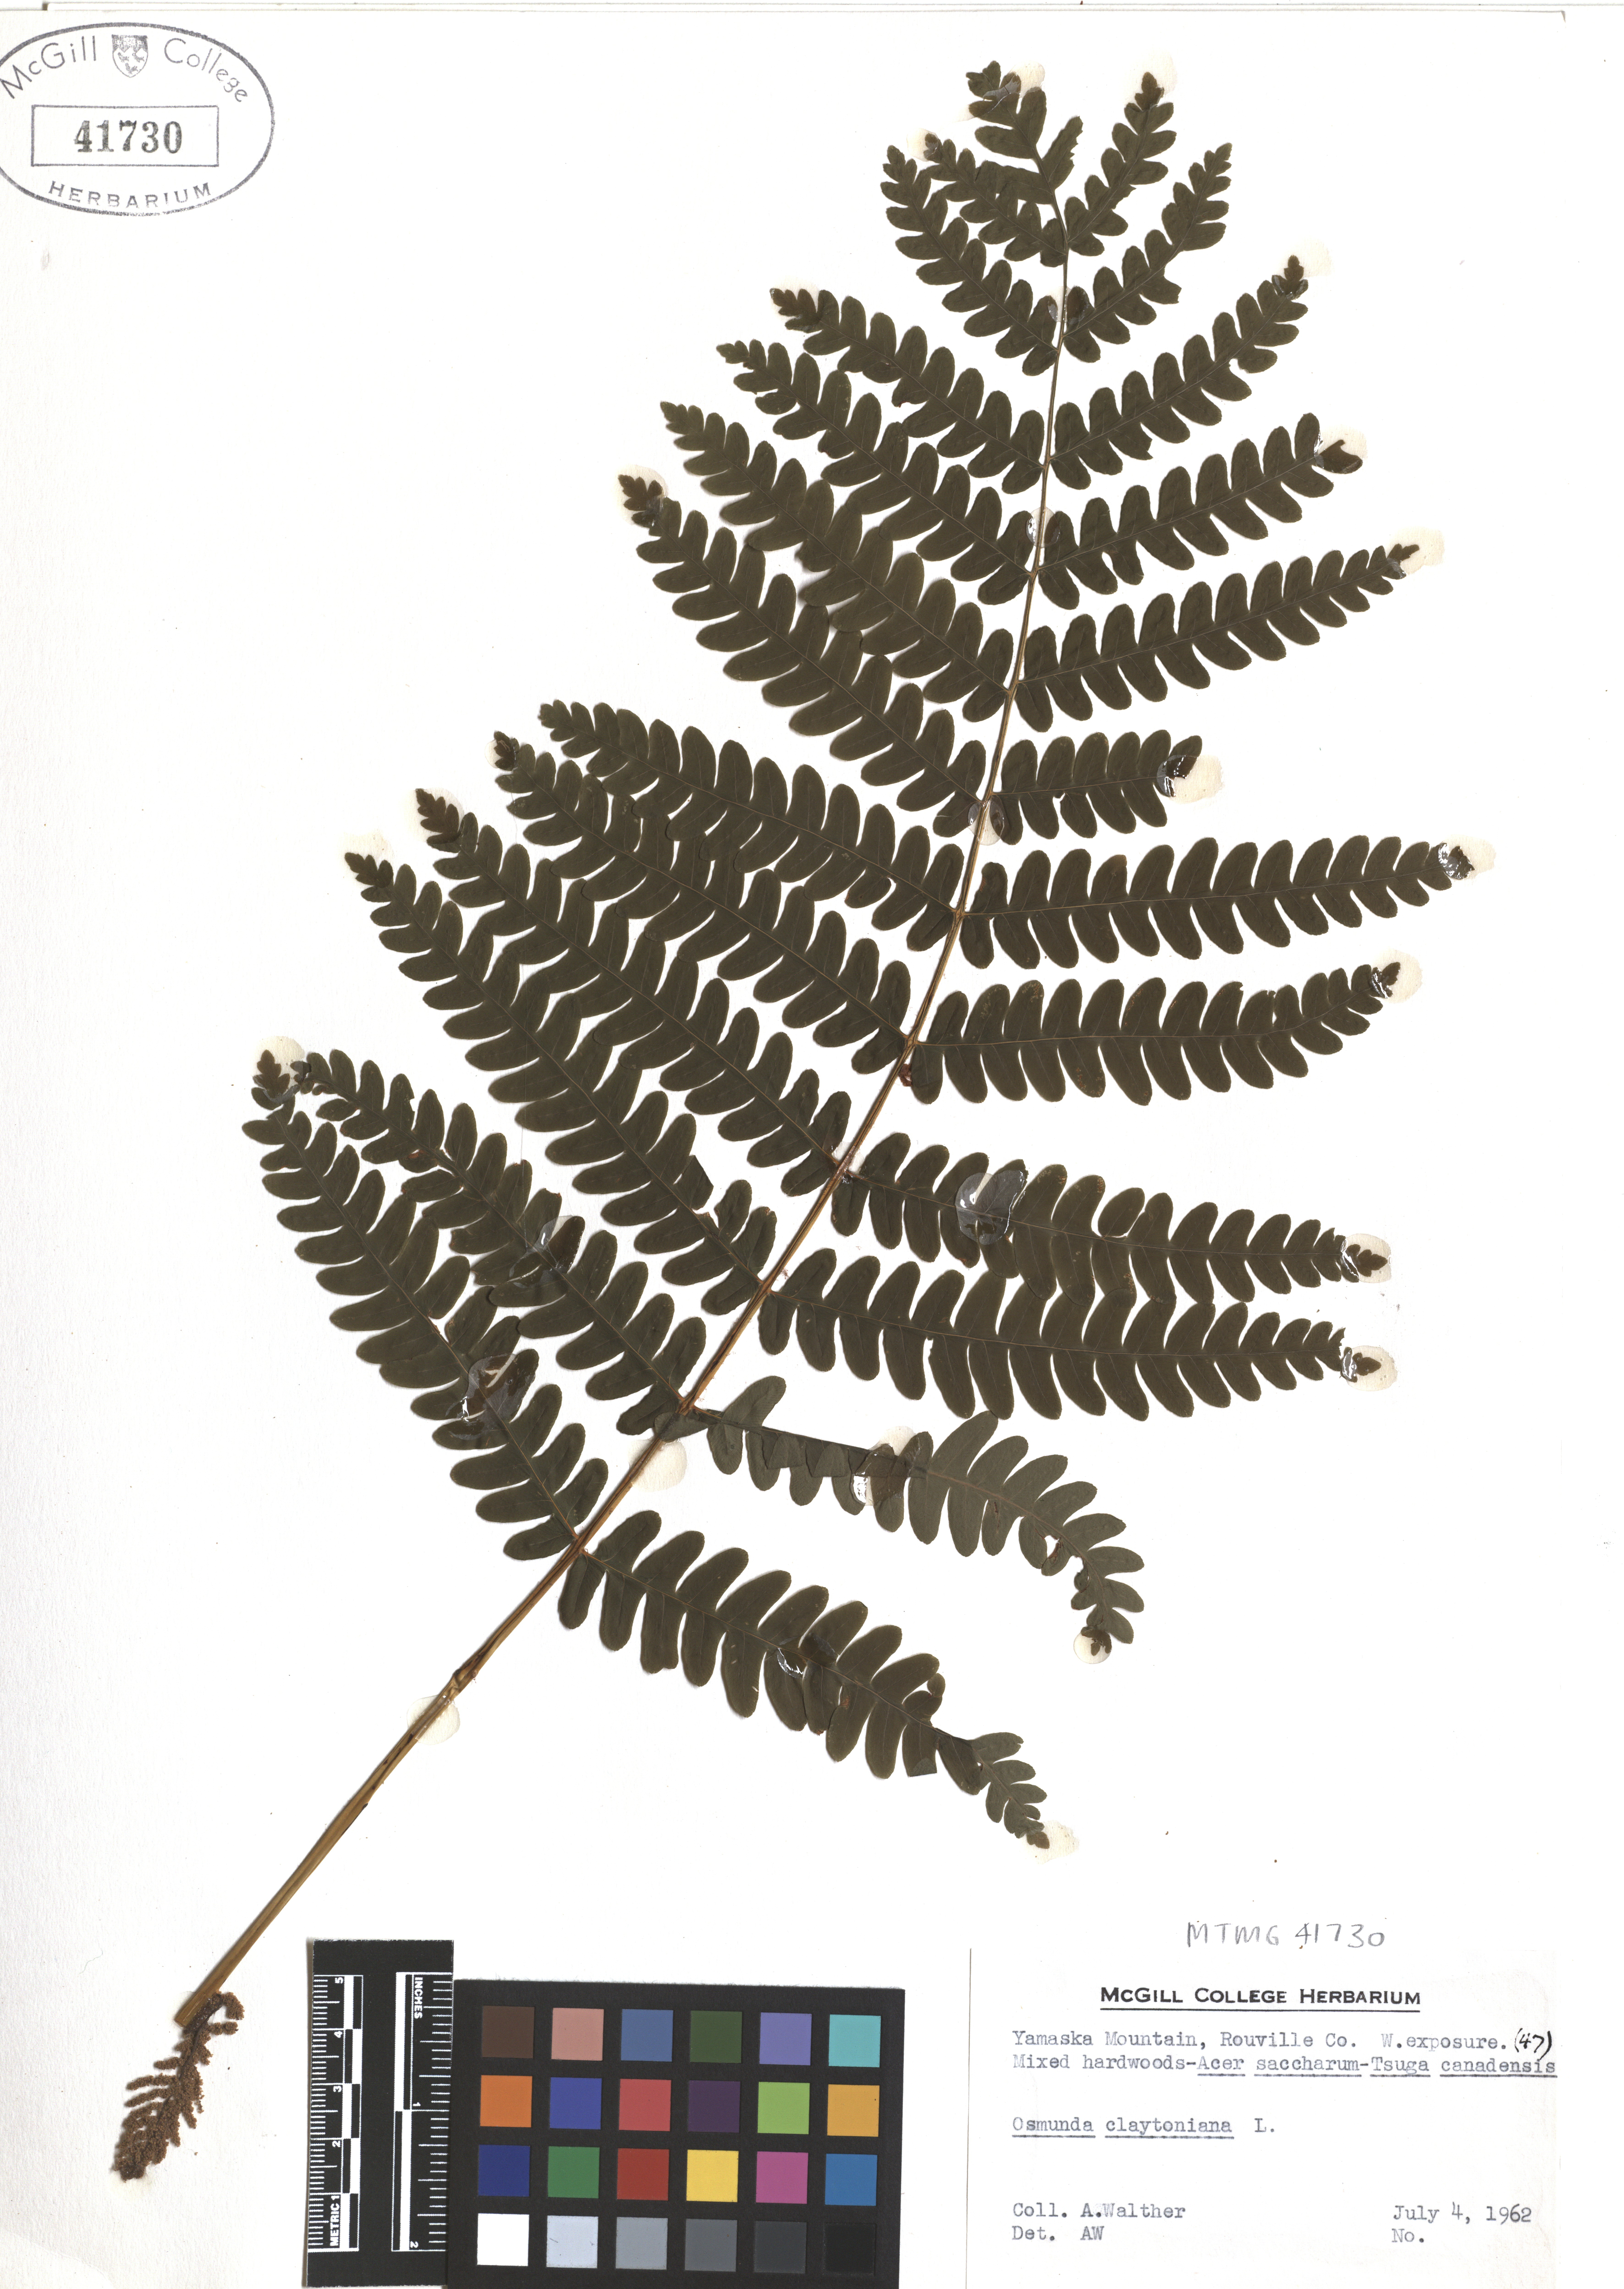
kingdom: Plantae
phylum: Tracheophyta
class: Polypodiopsida
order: Osmundales
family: Osmundaceae
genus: Claytosmunda
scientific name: Claytosmunda claytoniana
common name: Clayton's fern
